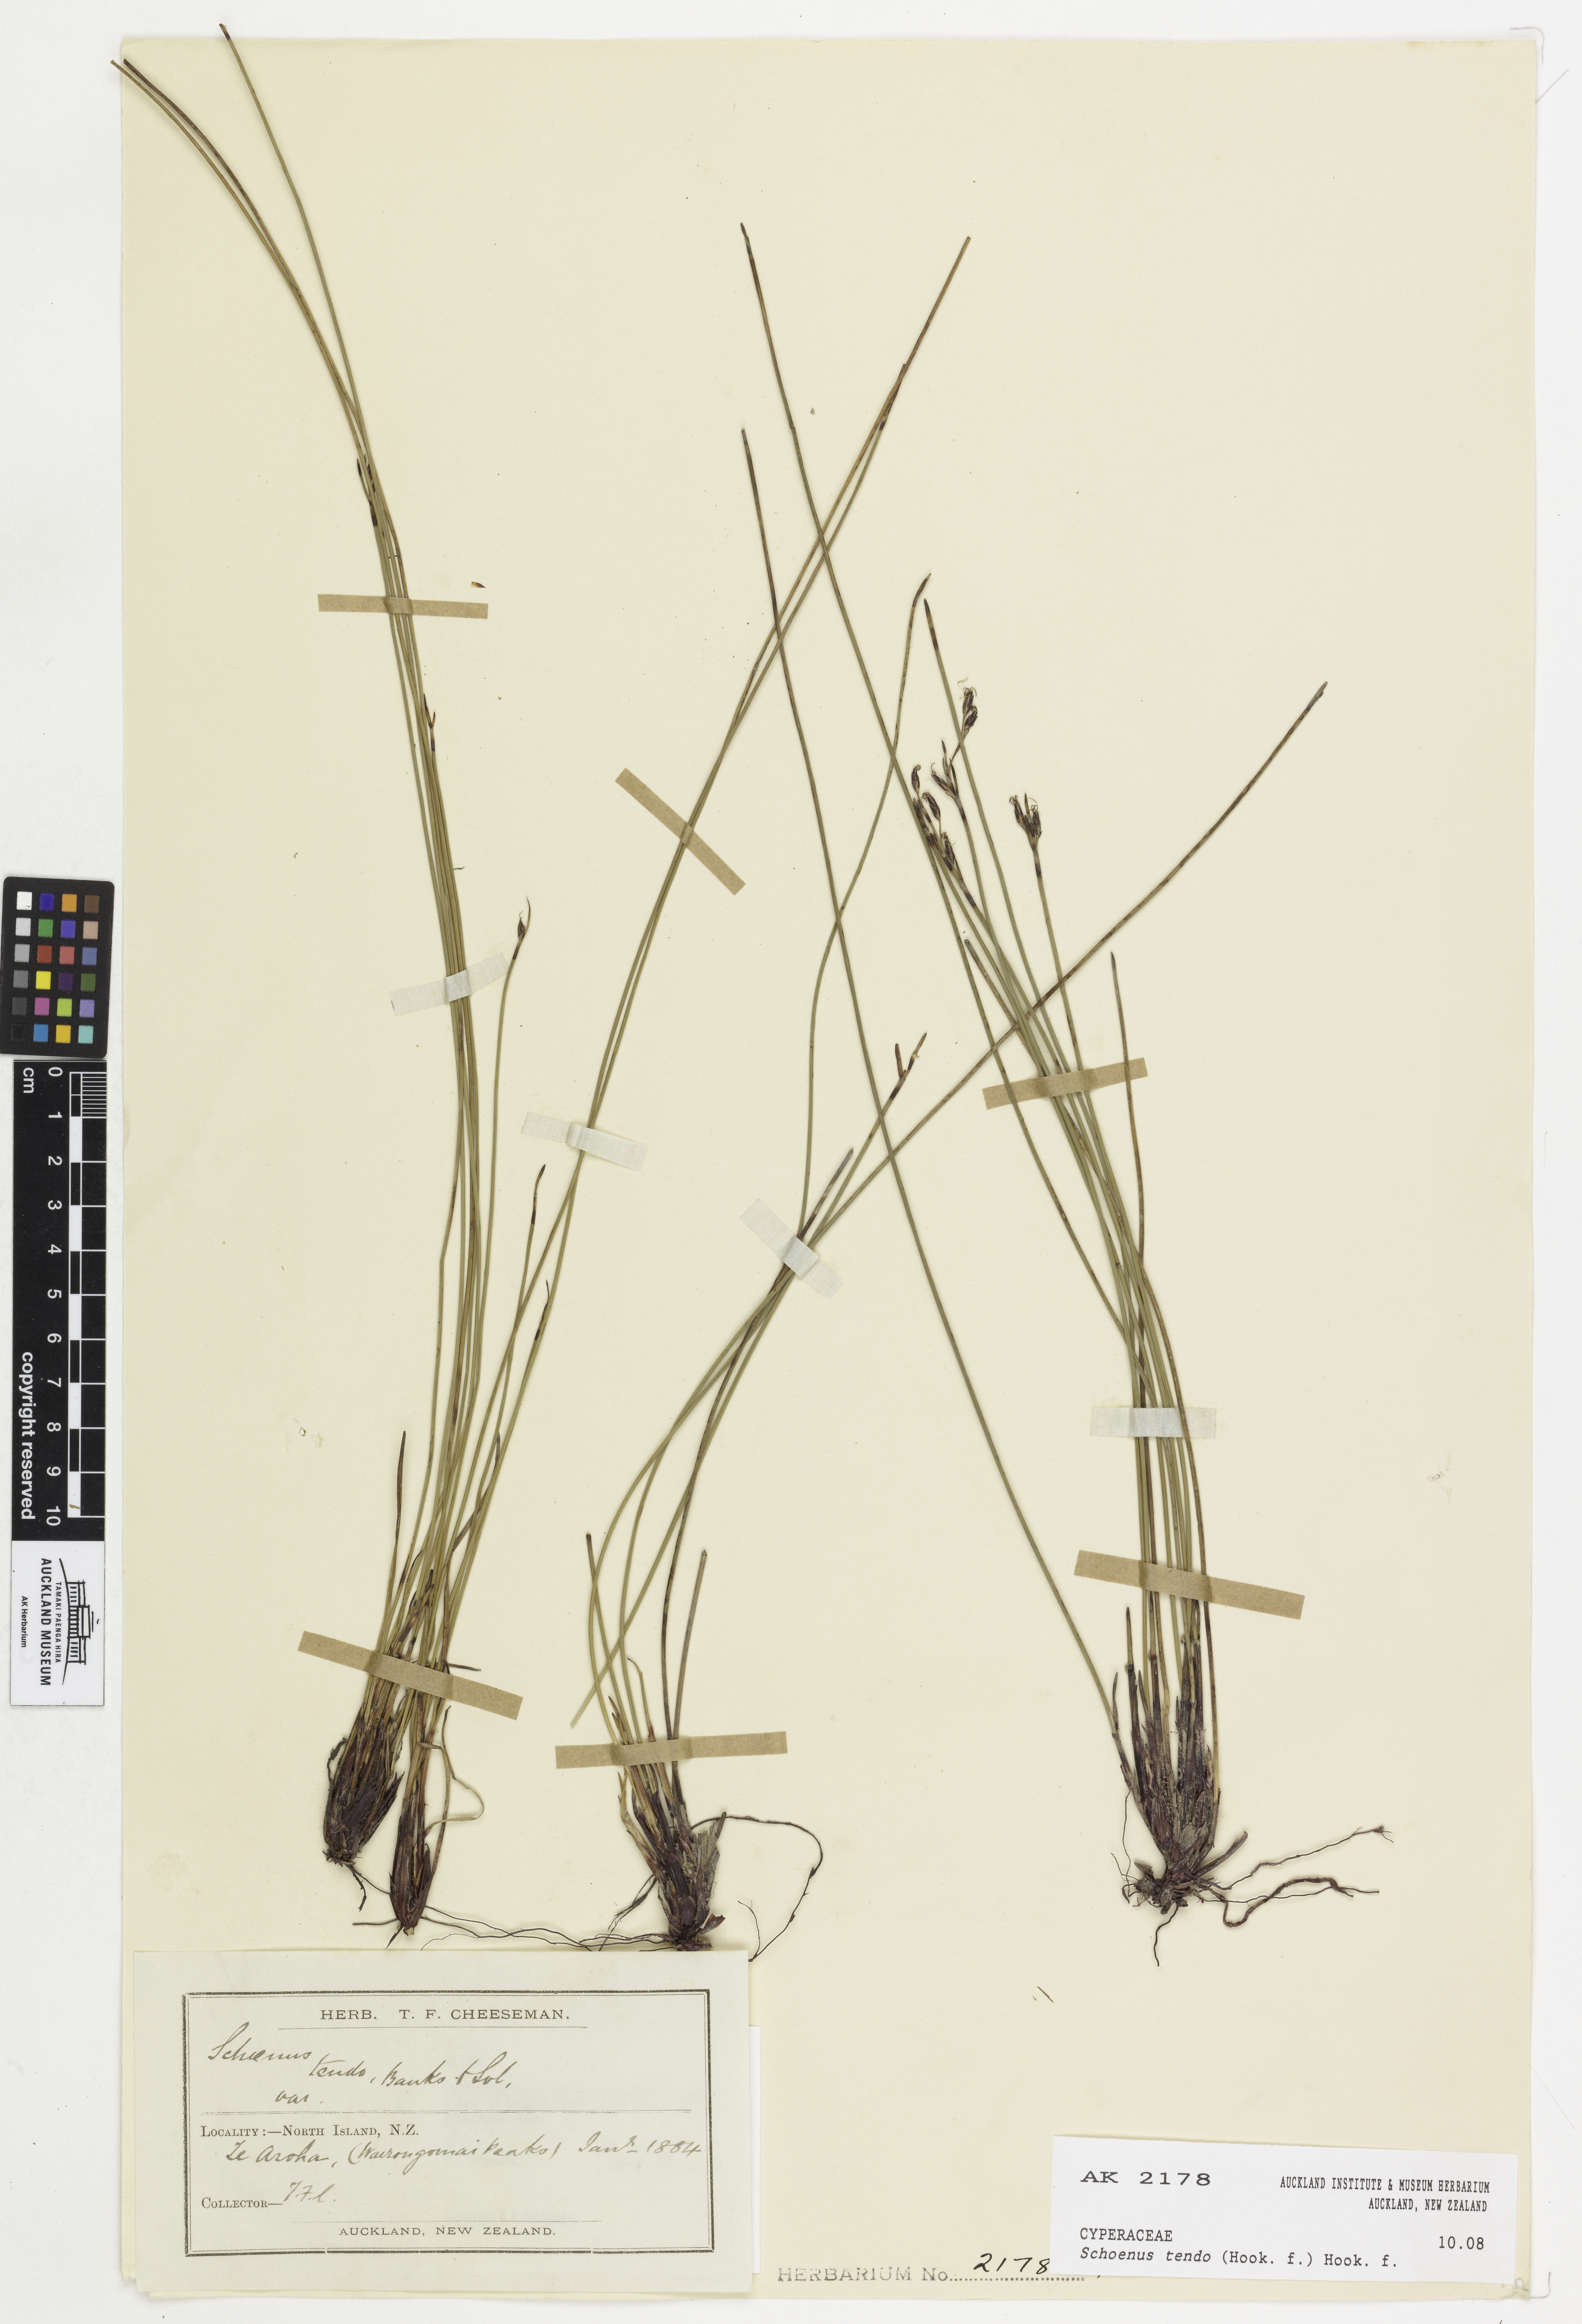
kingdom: Plantae
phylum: Tracheophyta
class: Liliopsida
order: Poales
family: Cyperaceae
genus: Schoenus
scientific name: Schoenus tendo
